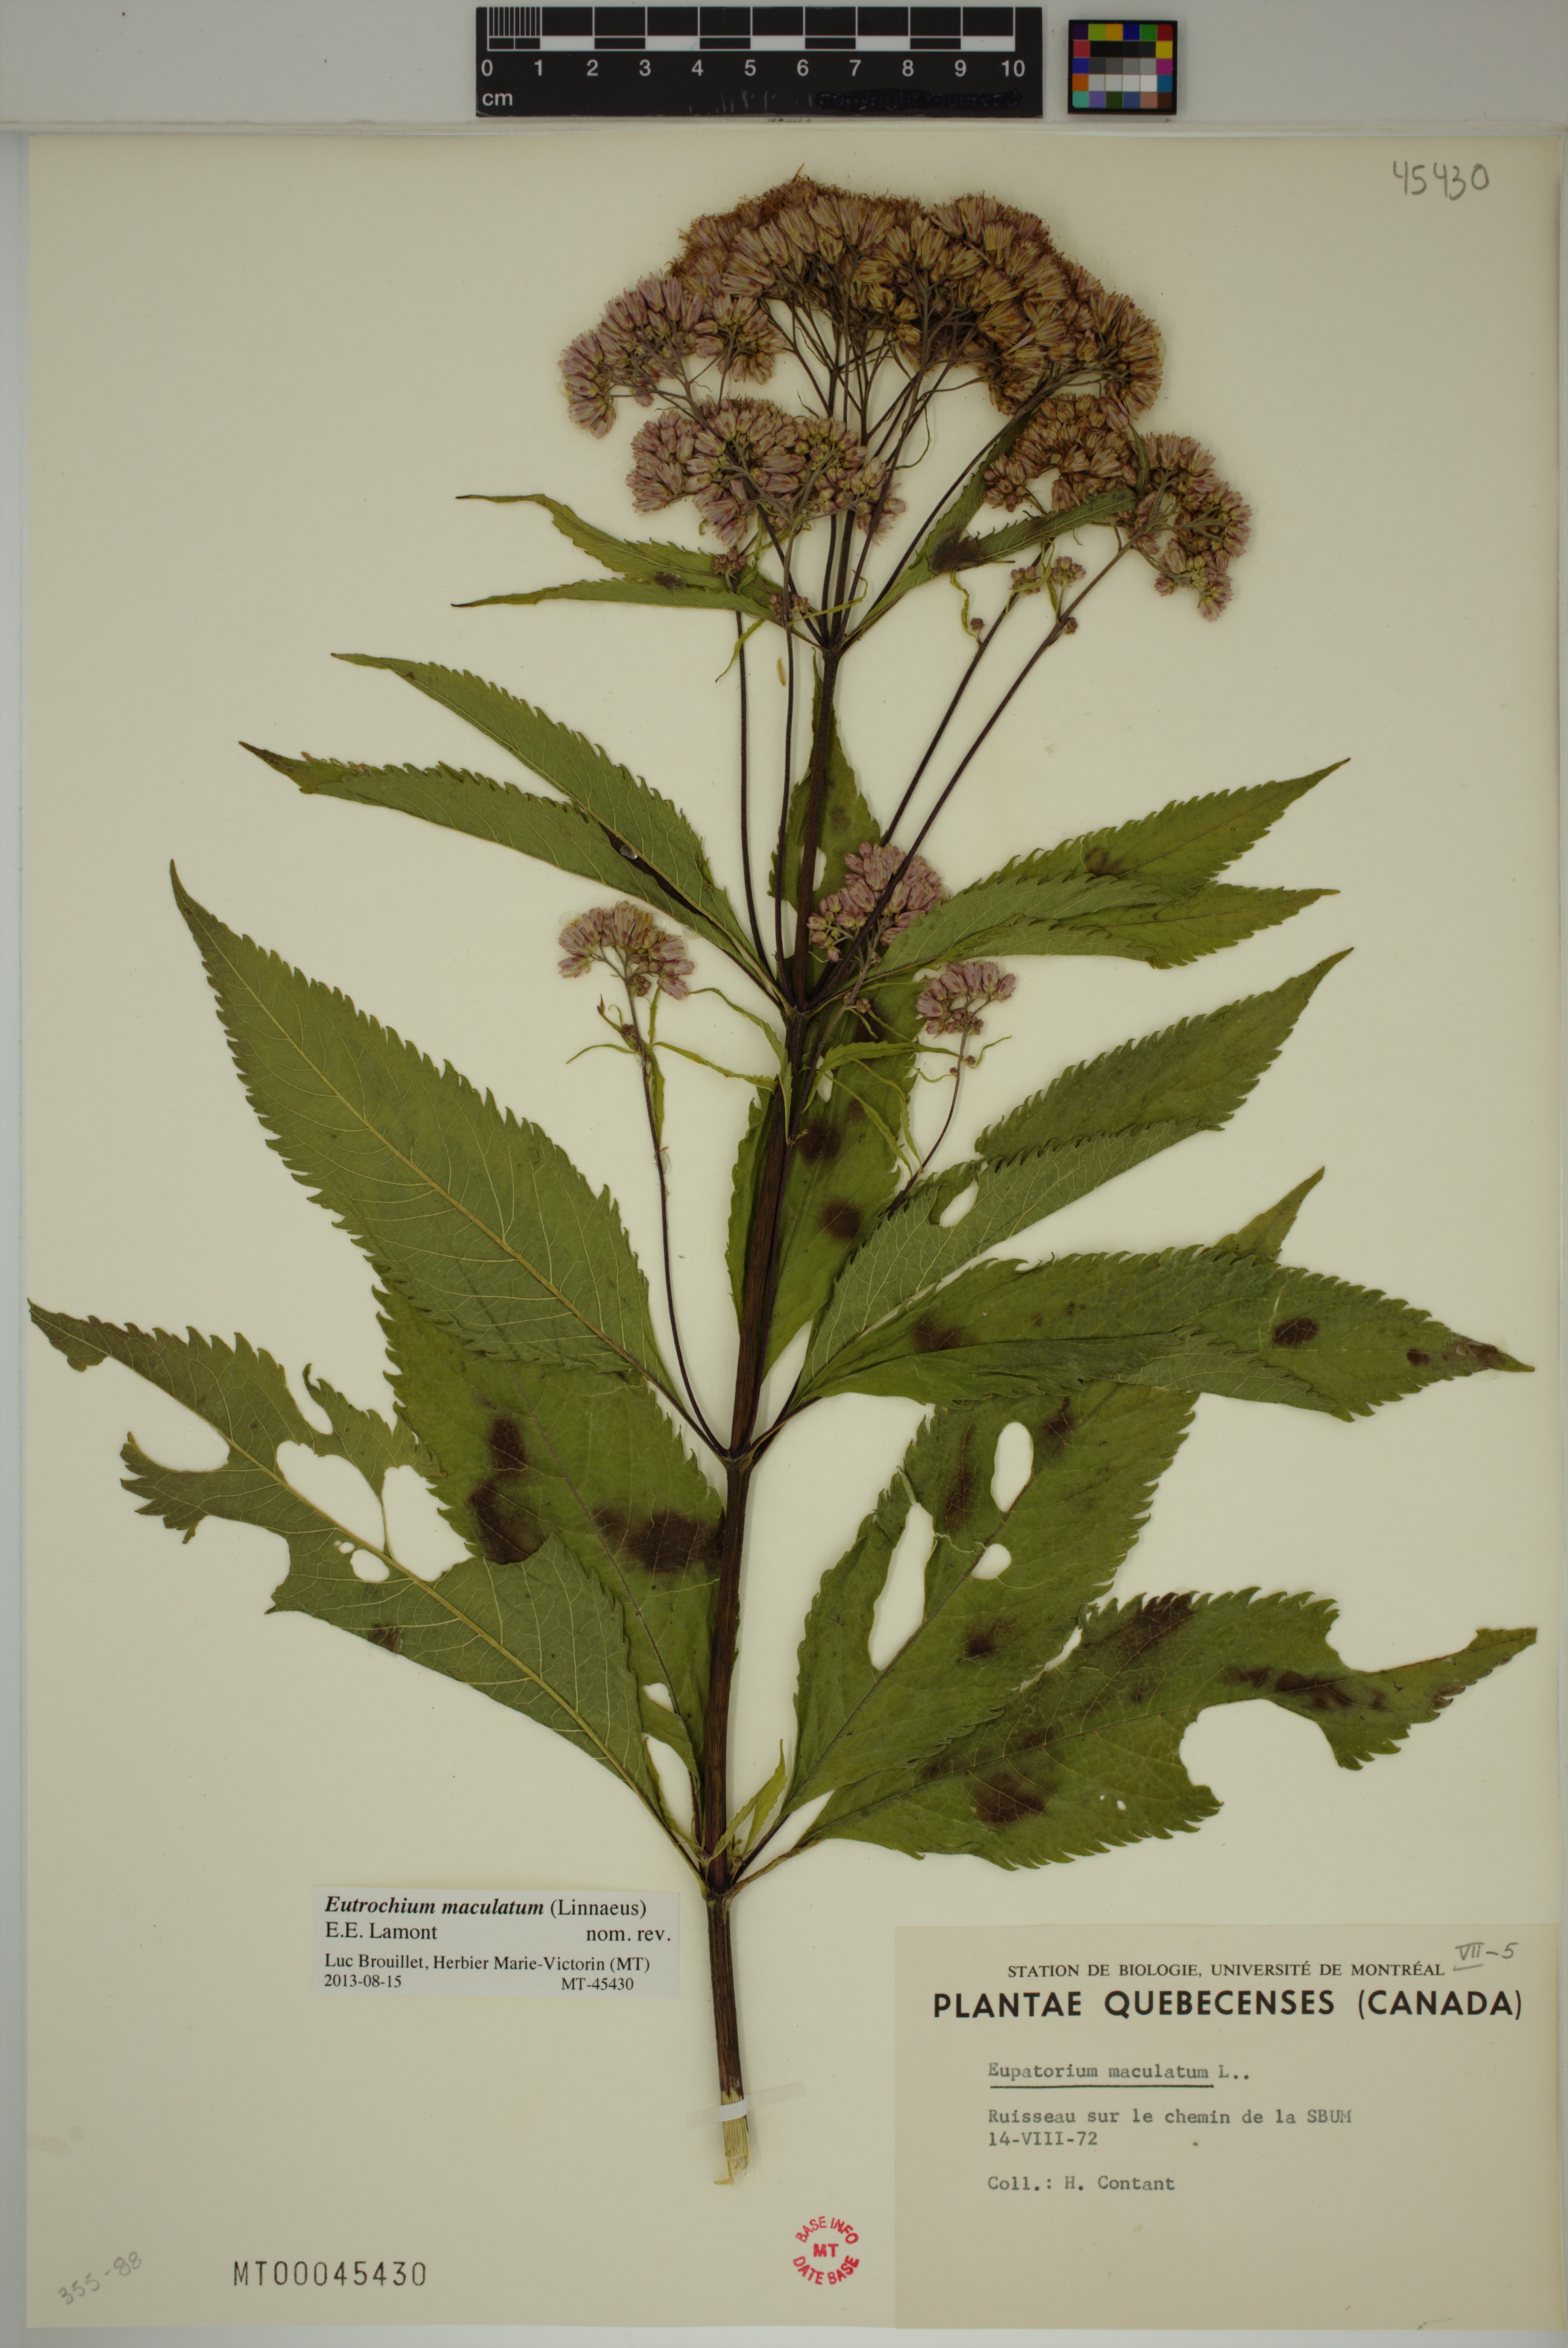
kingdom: Plantae
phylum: Tracheophyta
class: Magnoliopsida
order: Asterales
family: Asteraceae
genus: Eutrochium
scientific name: Eutrochium maculatum
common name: Spotted joe pye weed
